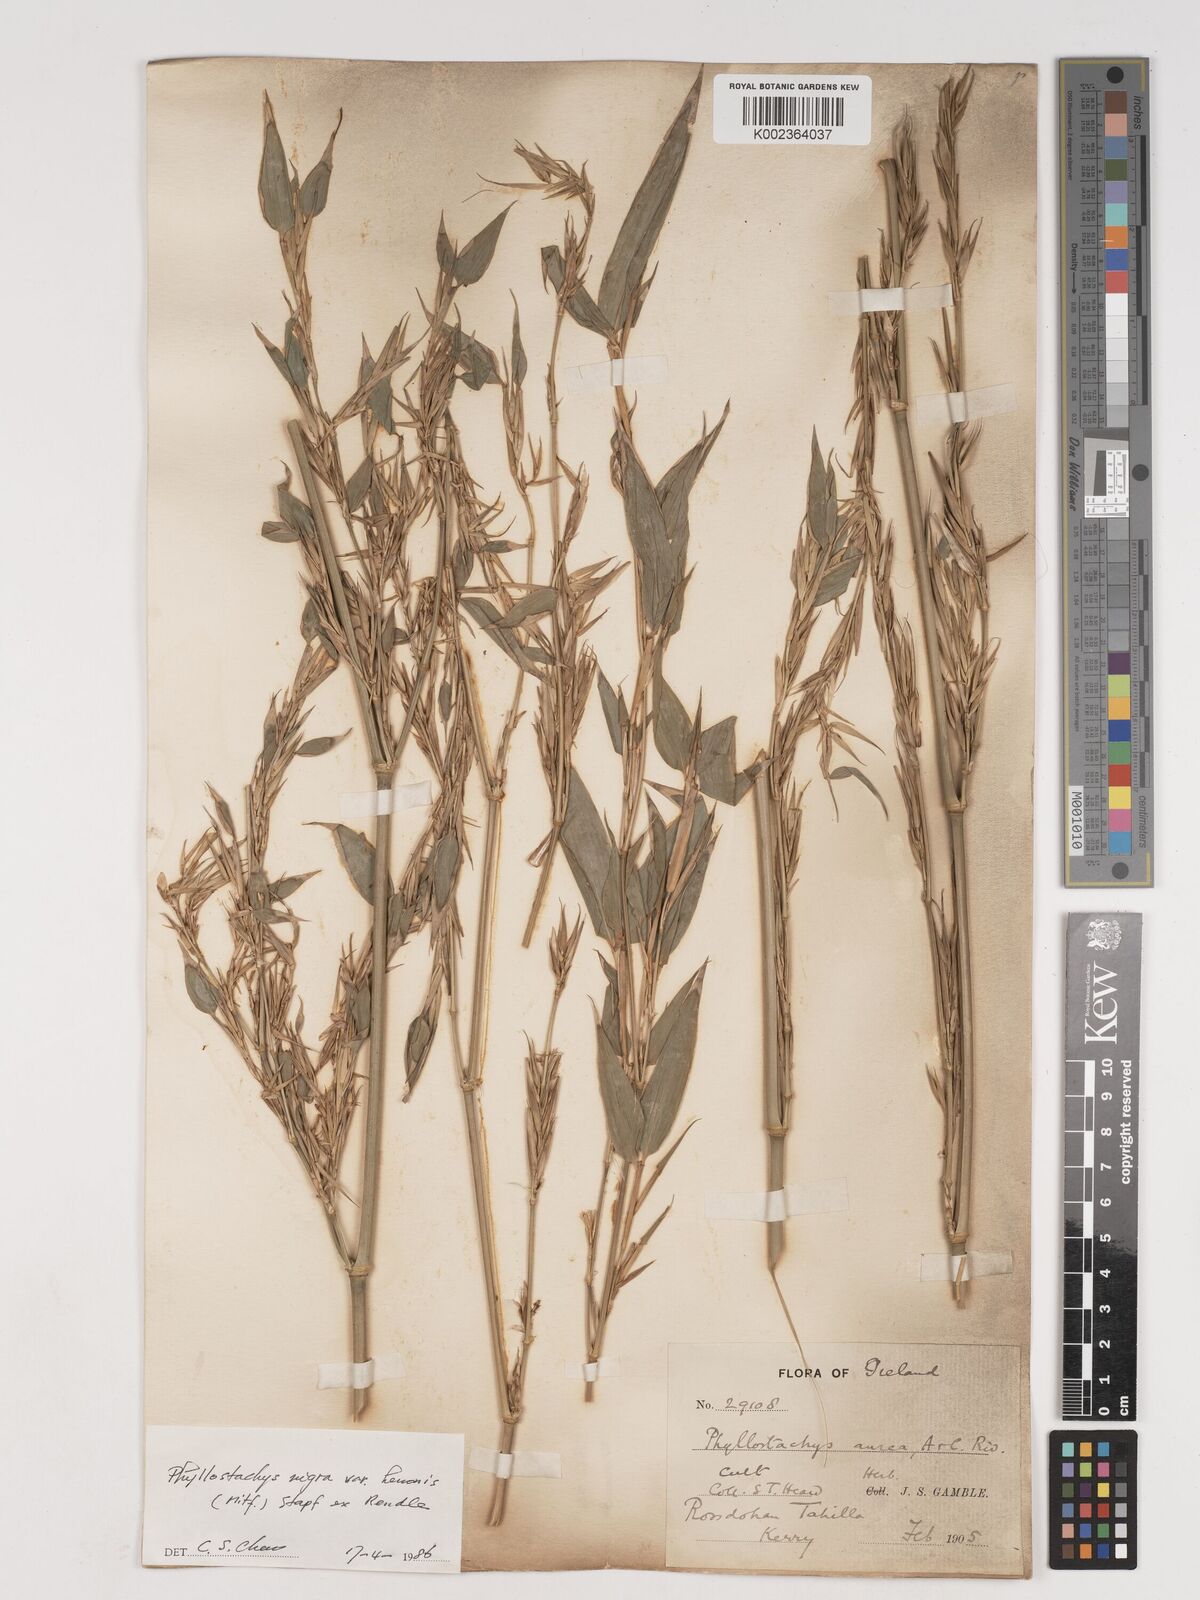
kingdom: Plantae
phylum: Tracheophyta
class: Liliopsida
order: Poales
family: Poaceae
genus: Phyllostachys
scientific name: Phyllostachys nigra
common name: Black bamboo
